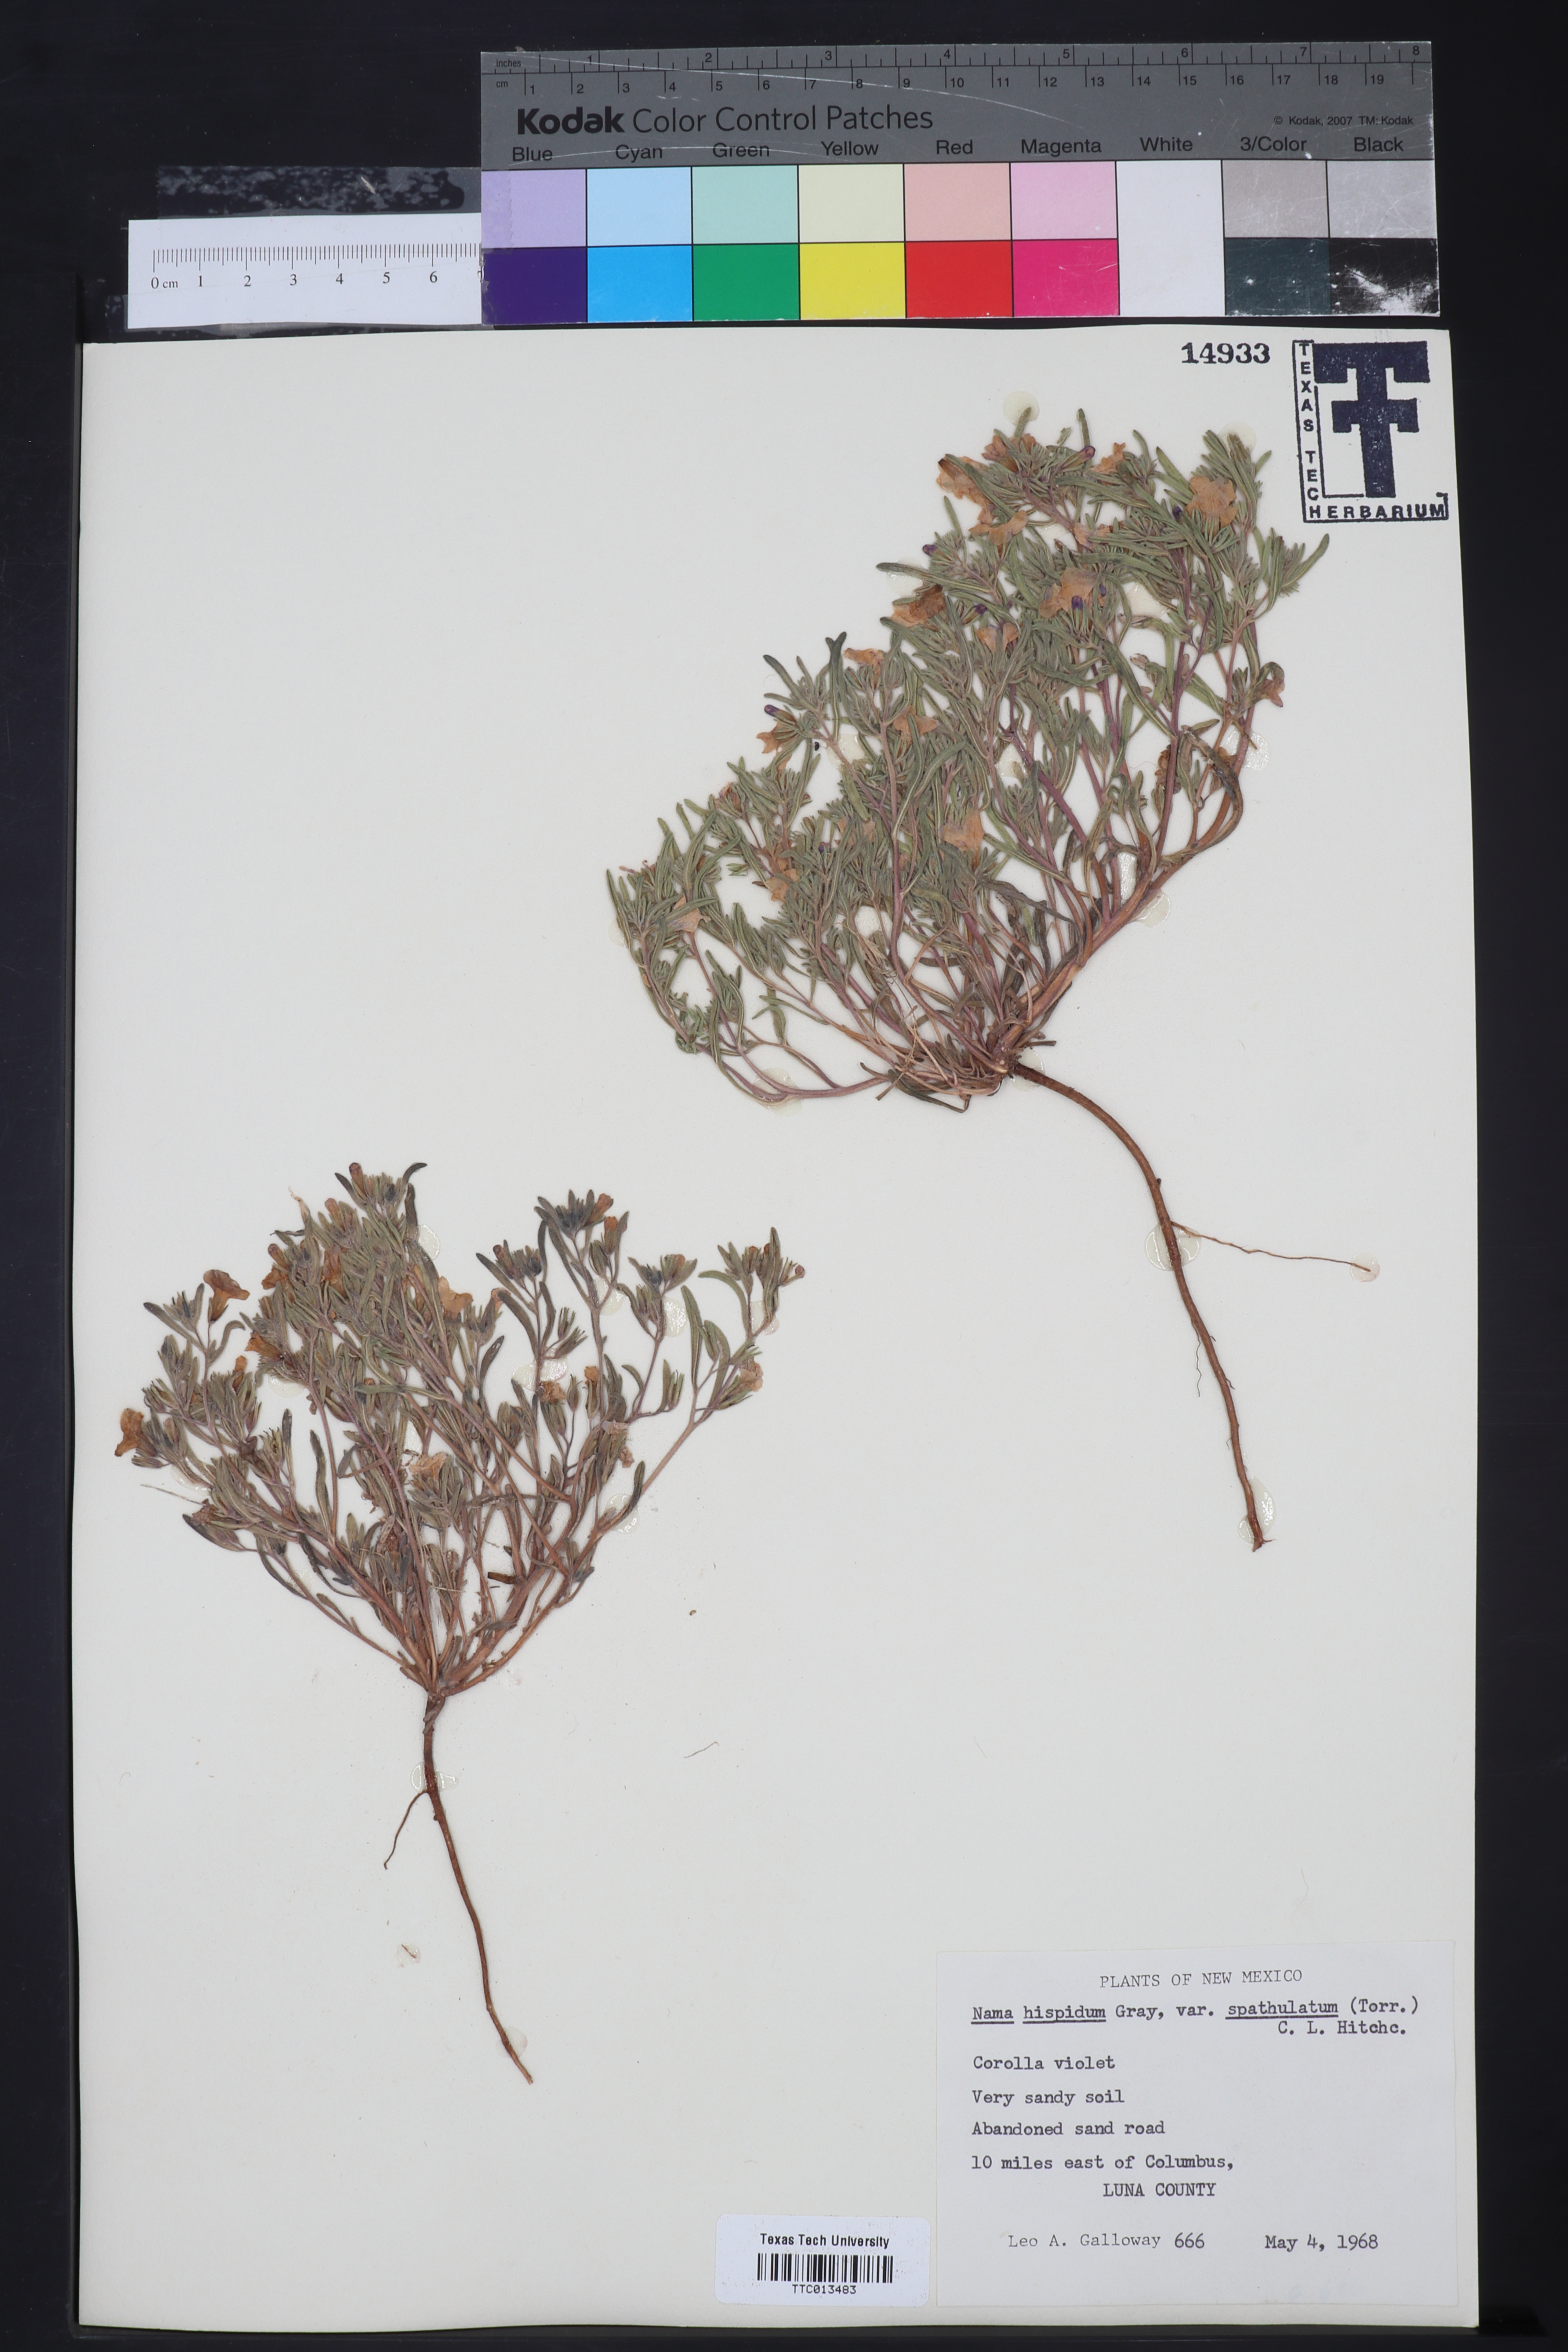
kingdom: Plantae
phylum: Tracheophyta
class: Magnoliopsida
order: Boraginales
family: Namaceae
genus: Nama
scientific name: Nama hispida
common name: Bristly nama
